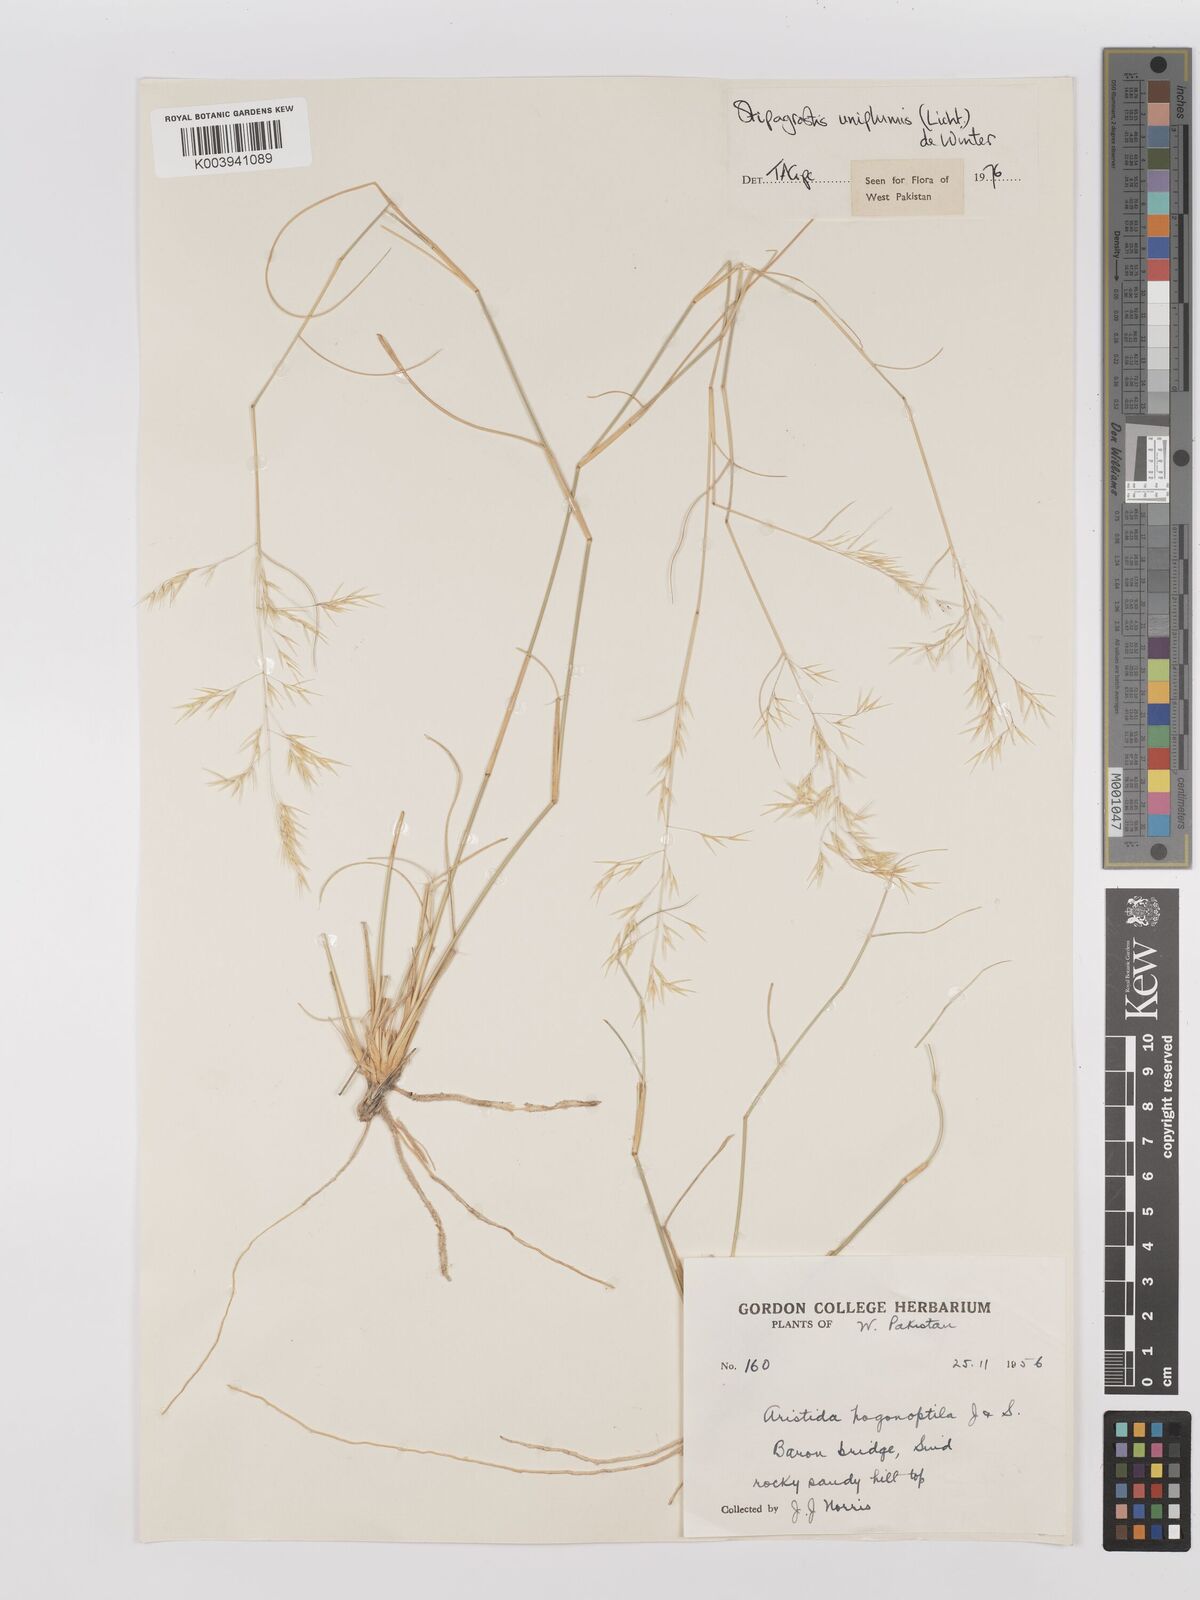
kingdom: Plantae
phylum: Tracheophyta
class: Liliopsida
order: Poales
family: Poaceae
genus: Stipagrostis
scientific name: Stipagrostis uniplumis
